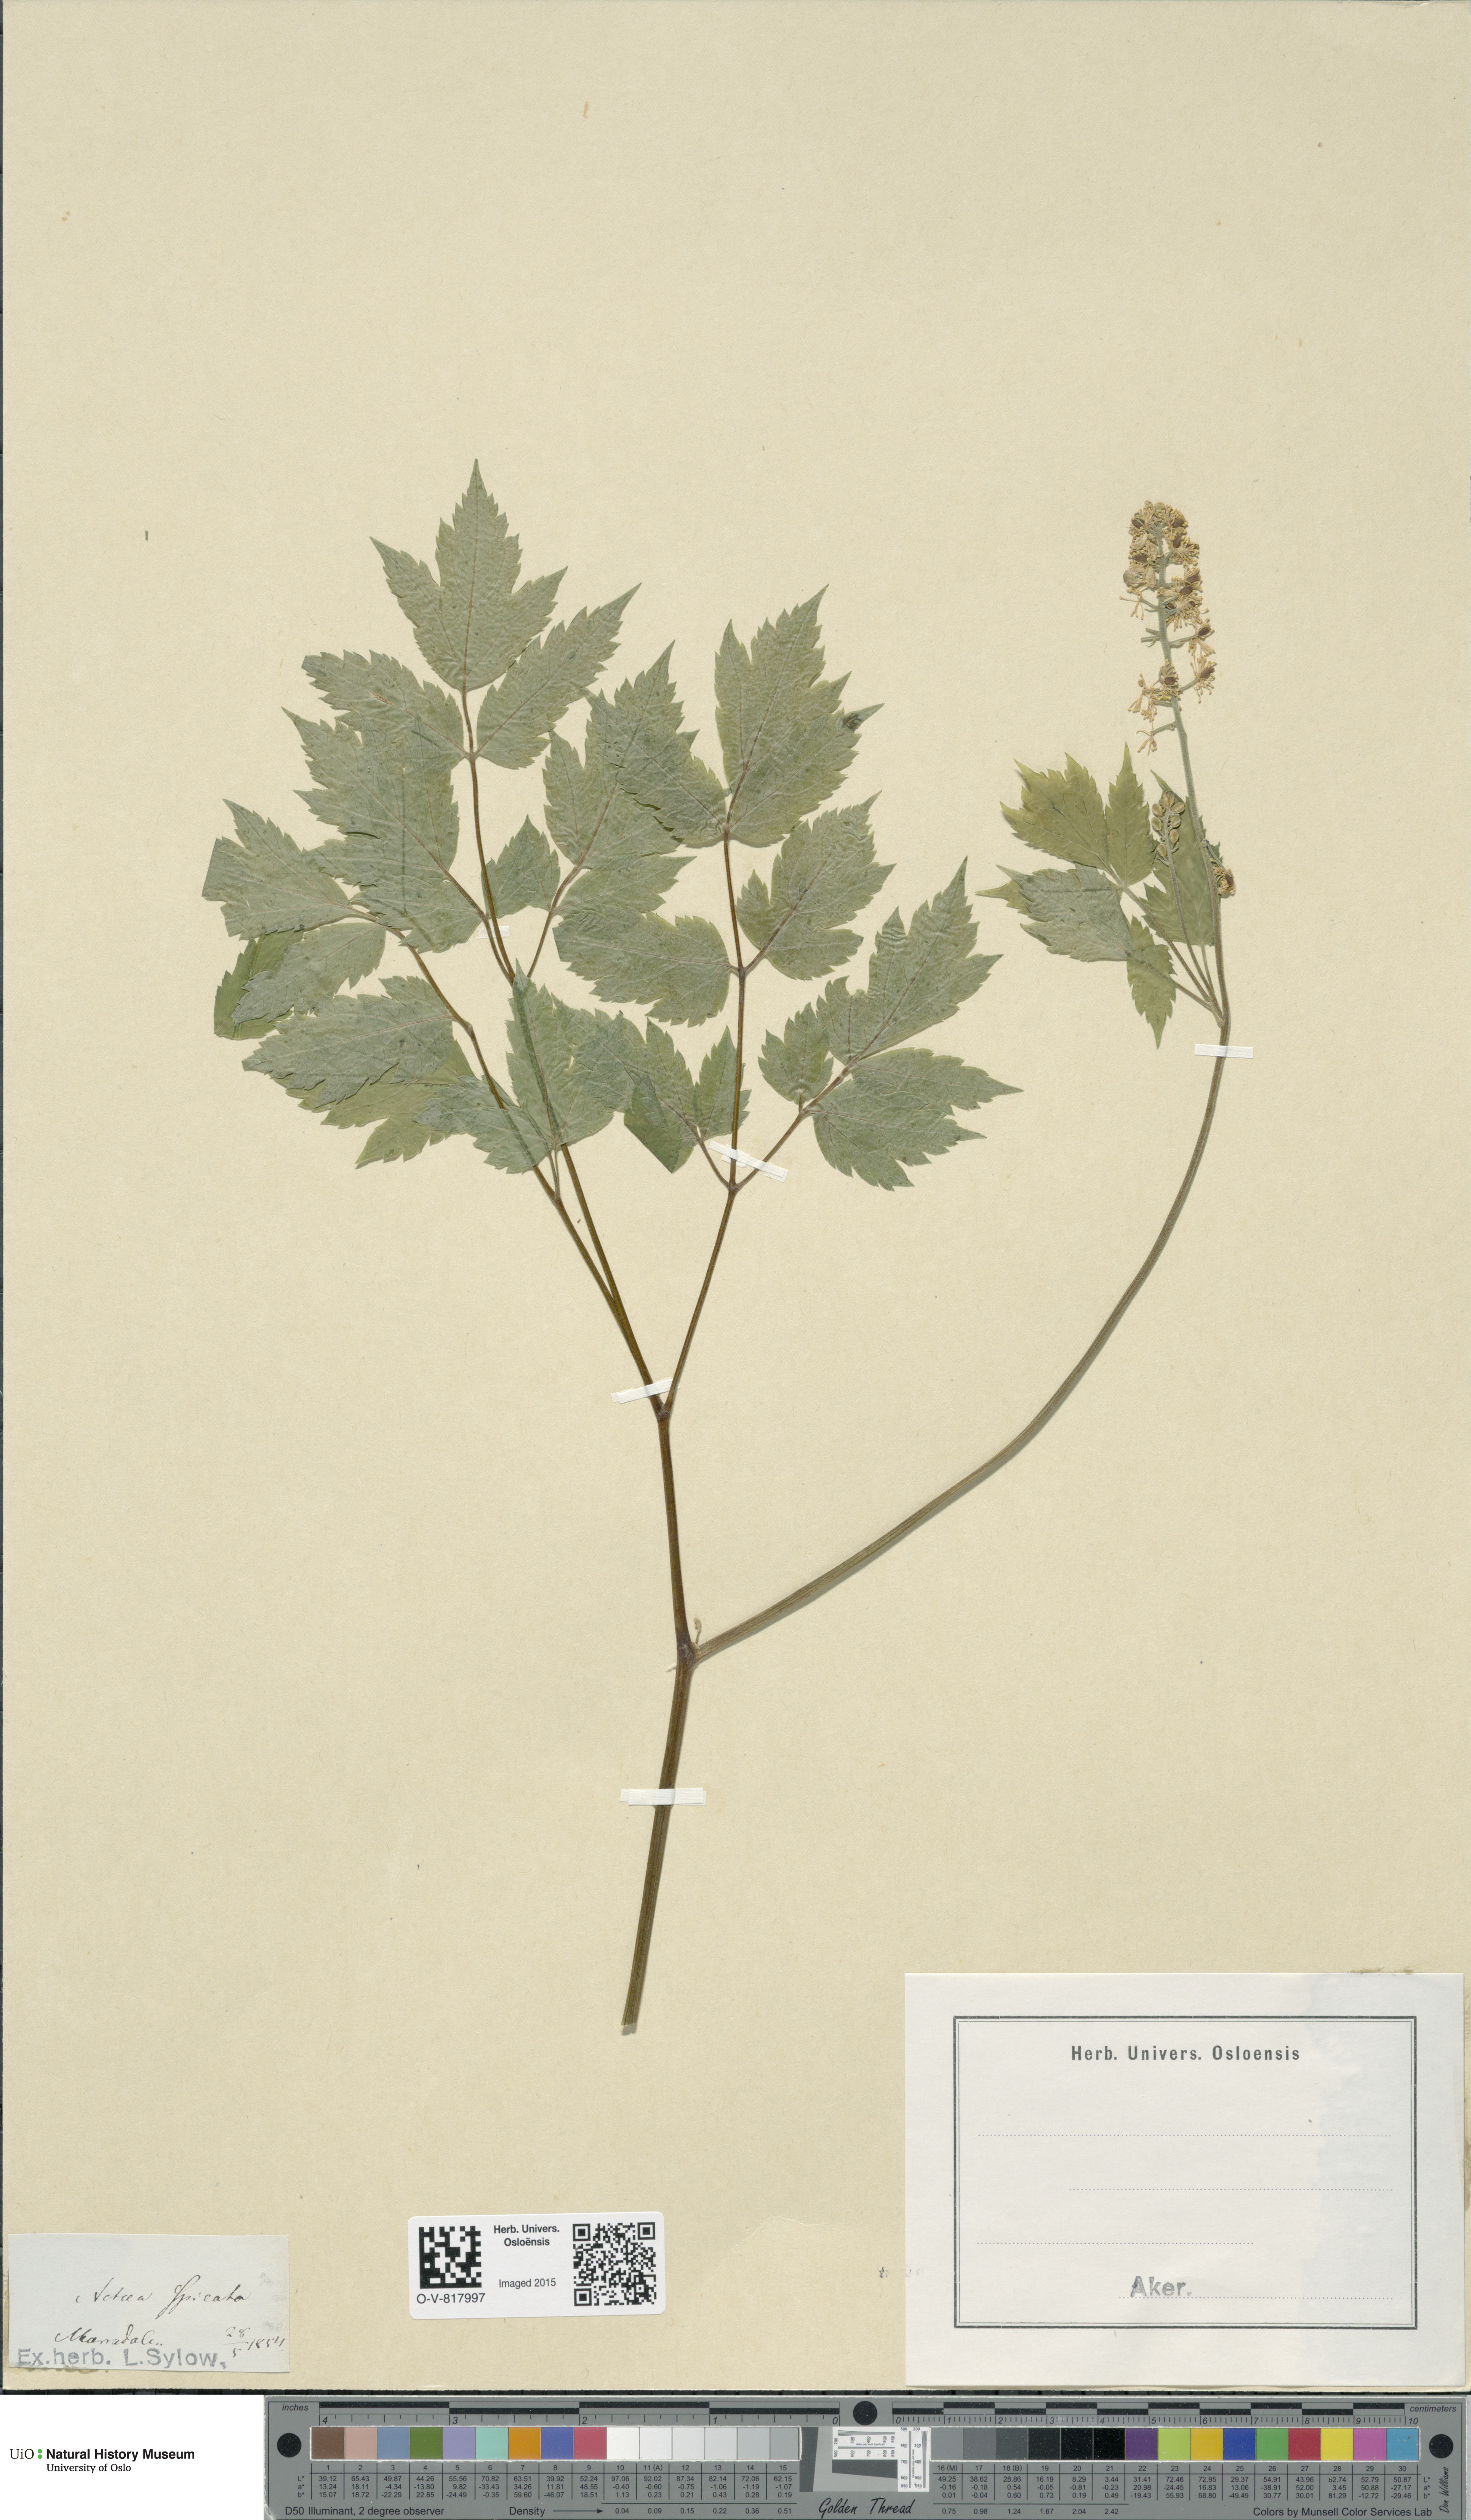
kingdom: Plantae
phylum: Tracheophyta
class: Magnoliopsida
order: Ranunculales
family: Ranunculaceae
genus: Actaea
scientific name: Actaea spicata
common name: Baneberry
